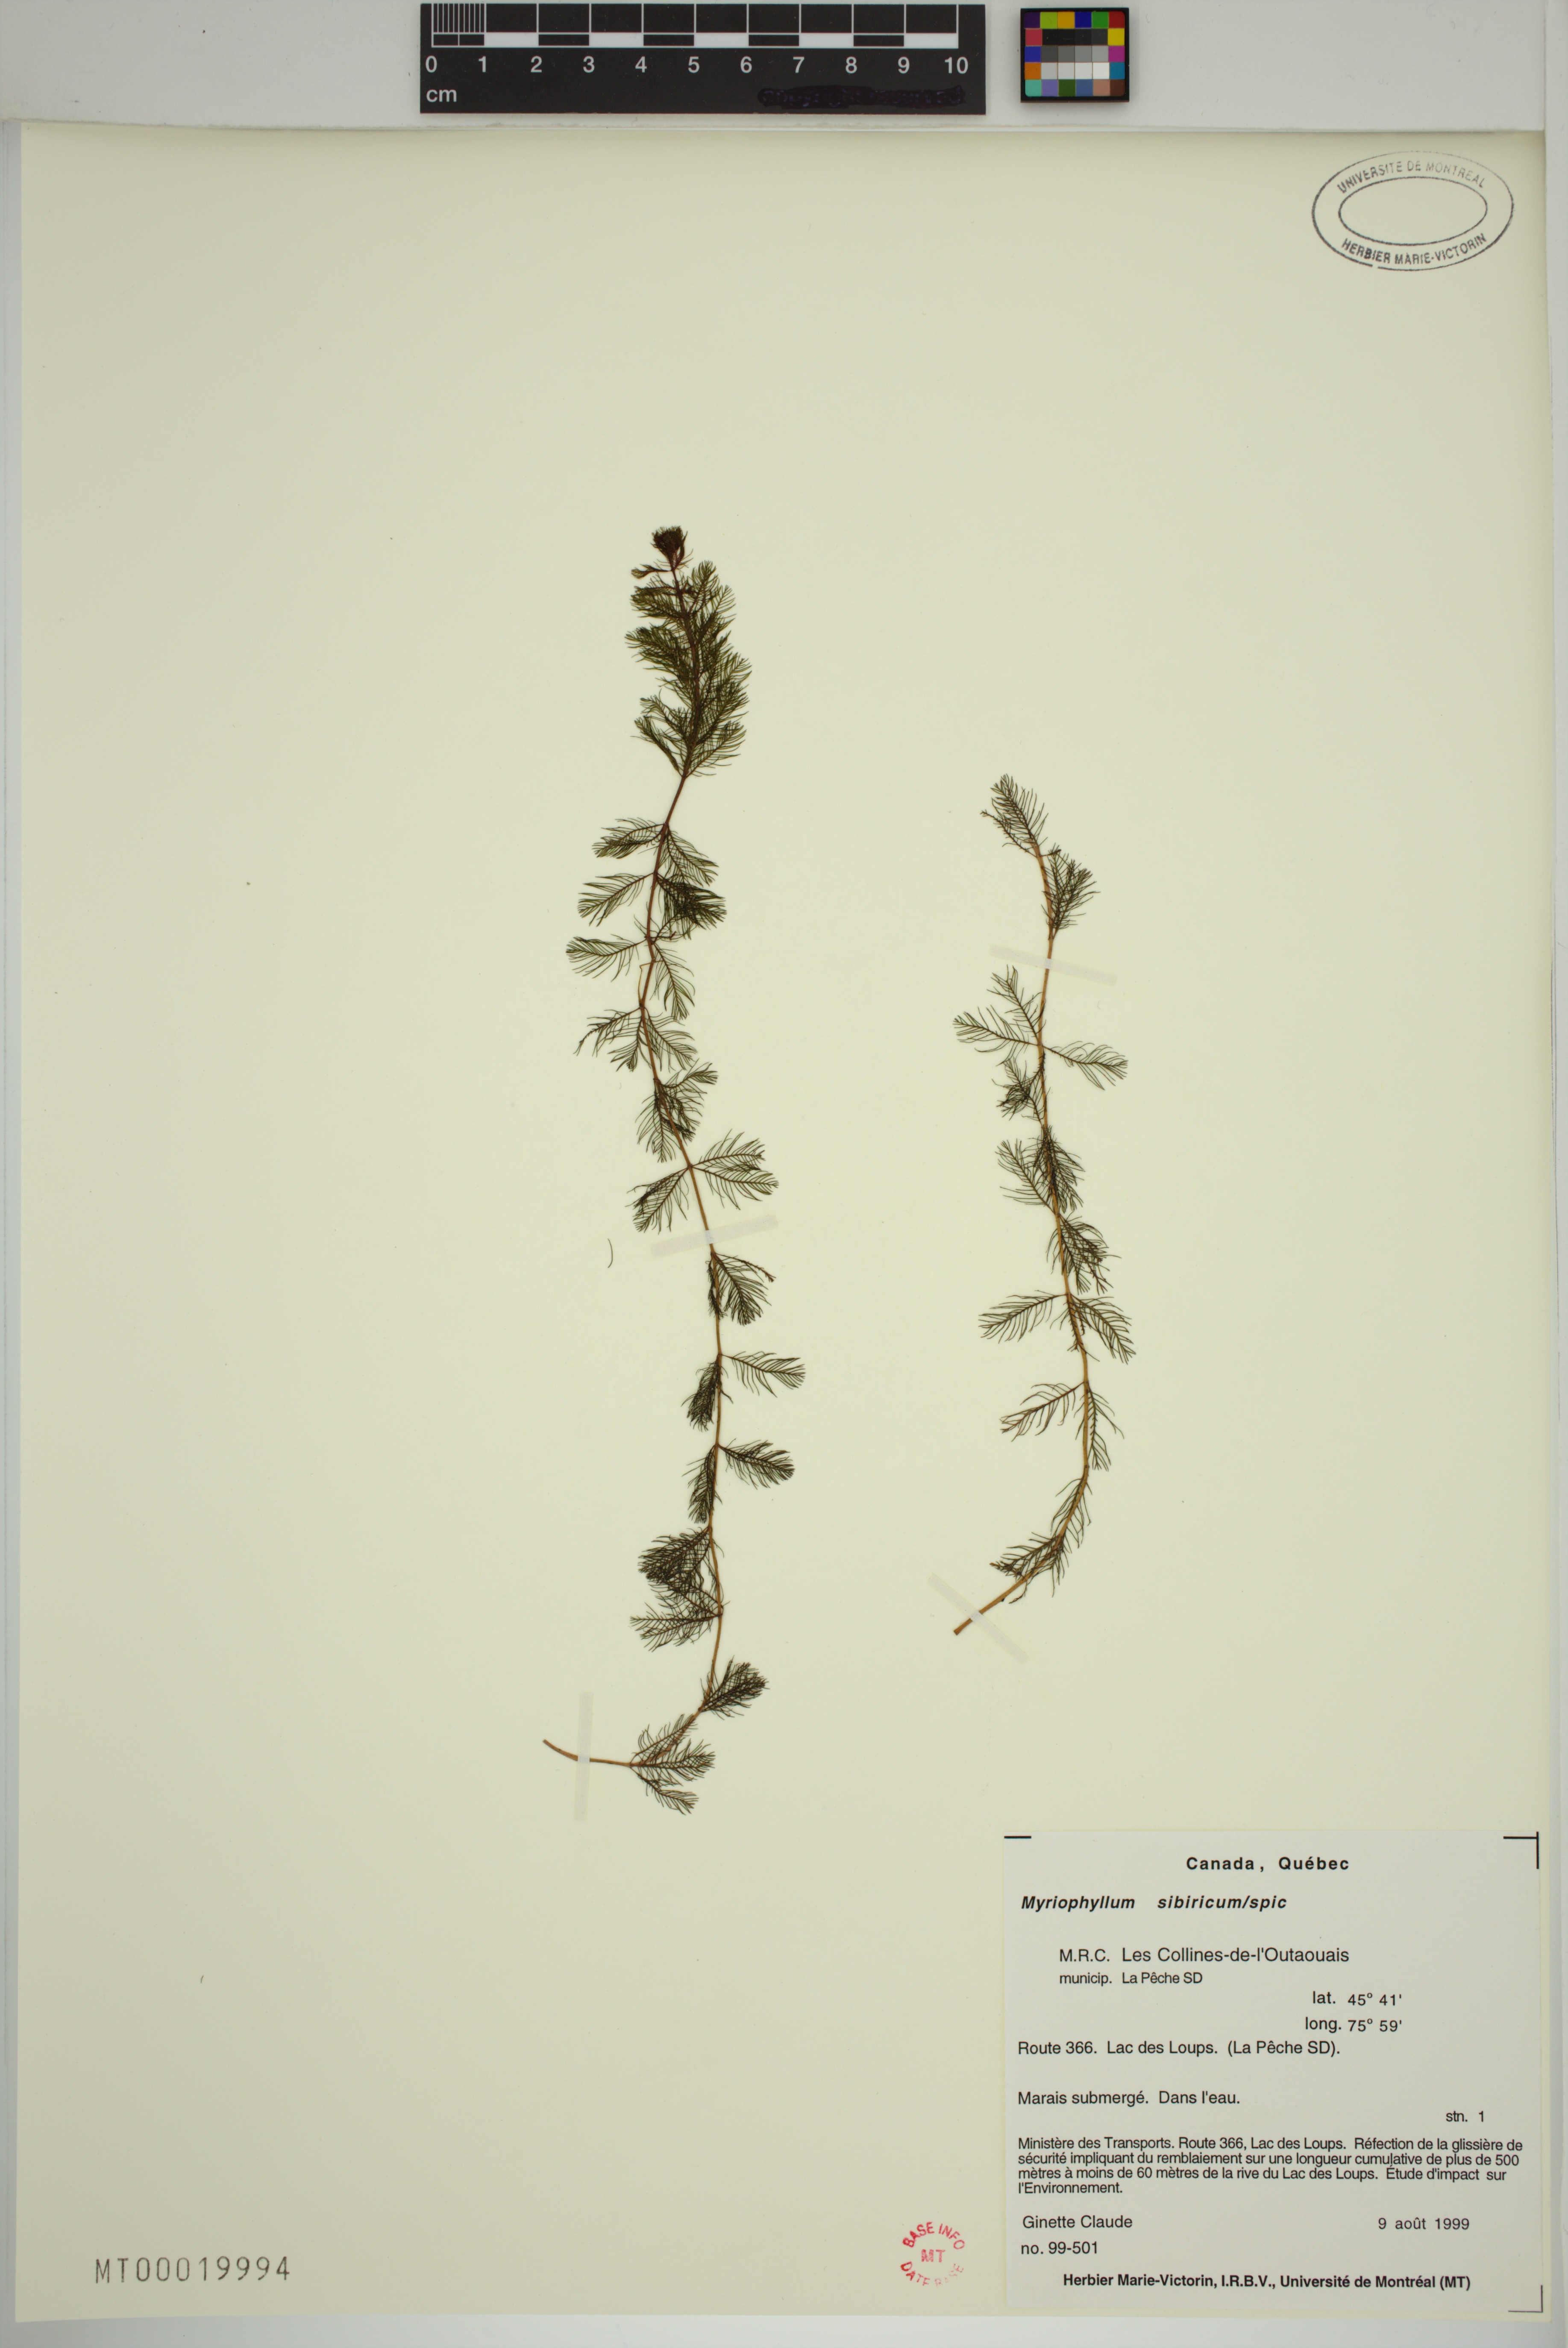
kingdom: Plantae
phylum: Tracheophyta
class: Magnoliopsida
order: Saxifragales
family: Haloragaceae
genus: Myriophyllum
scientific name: Myriophyllum sibiricum
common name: Siberian water-milfoil
